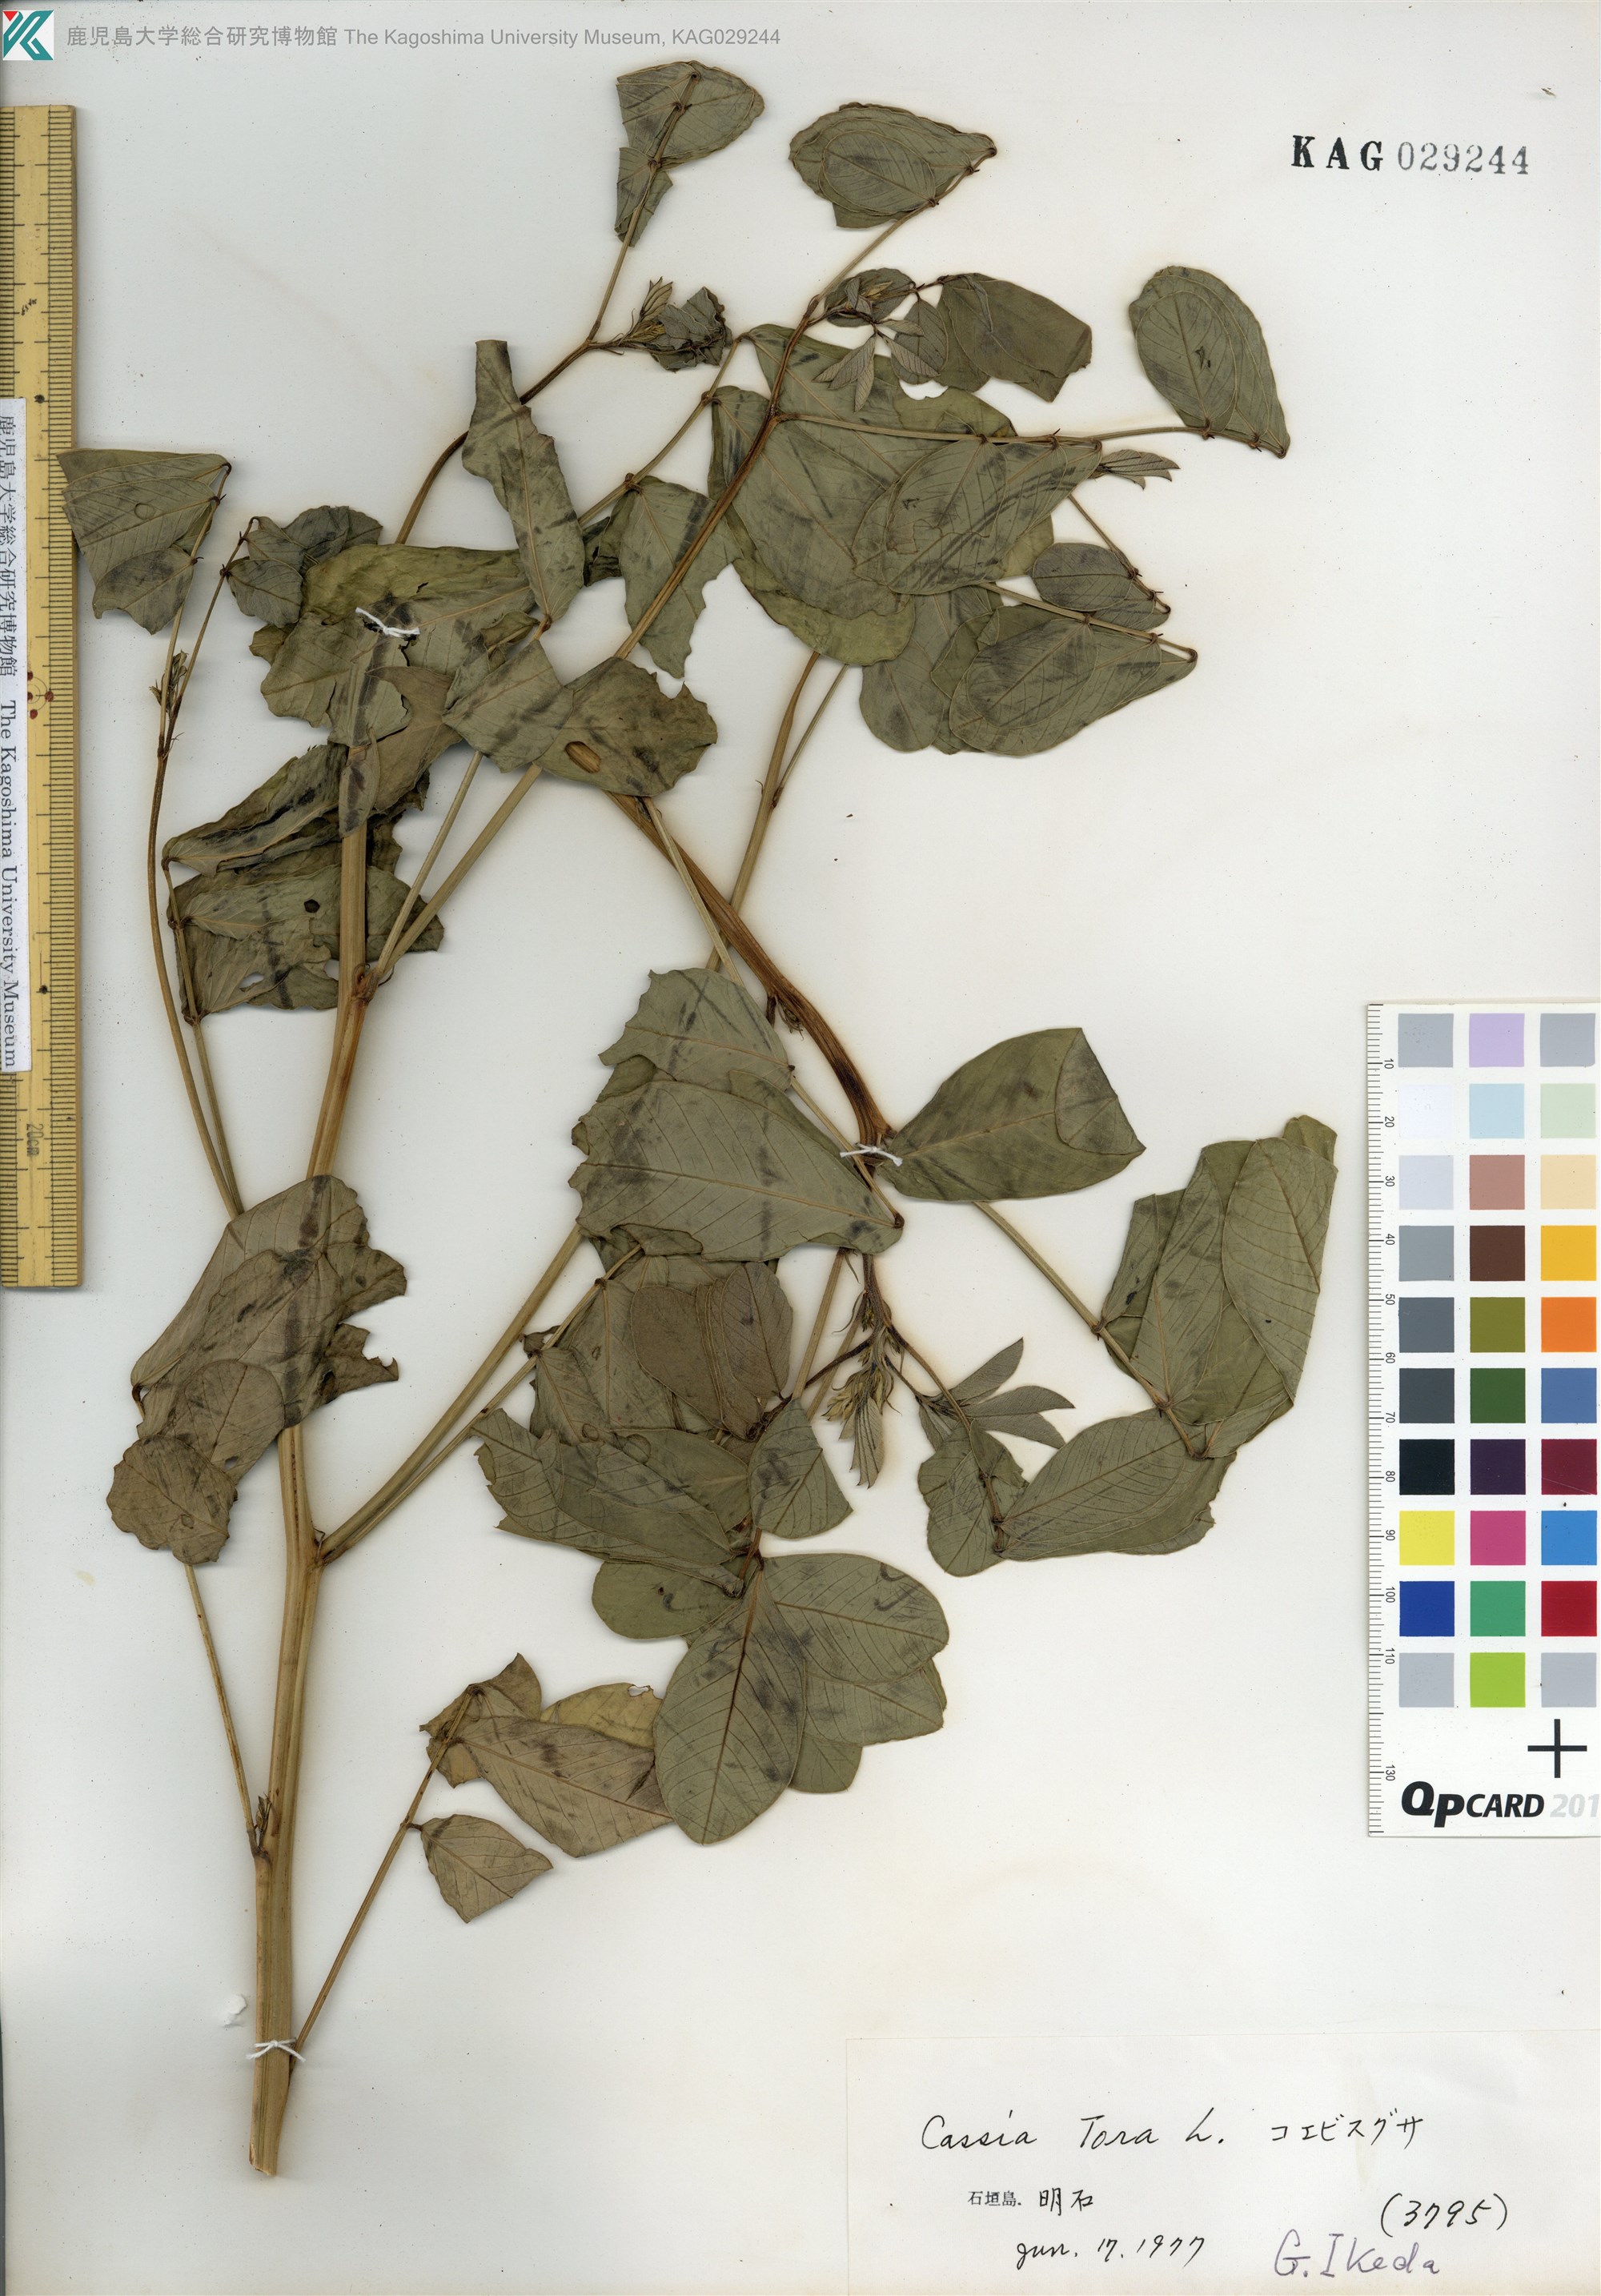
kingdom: Plantae
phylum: Tracheophyta
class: Magnoliopsida
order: Fabales
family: Fabaceae
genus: Senna
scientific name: Senna tora
